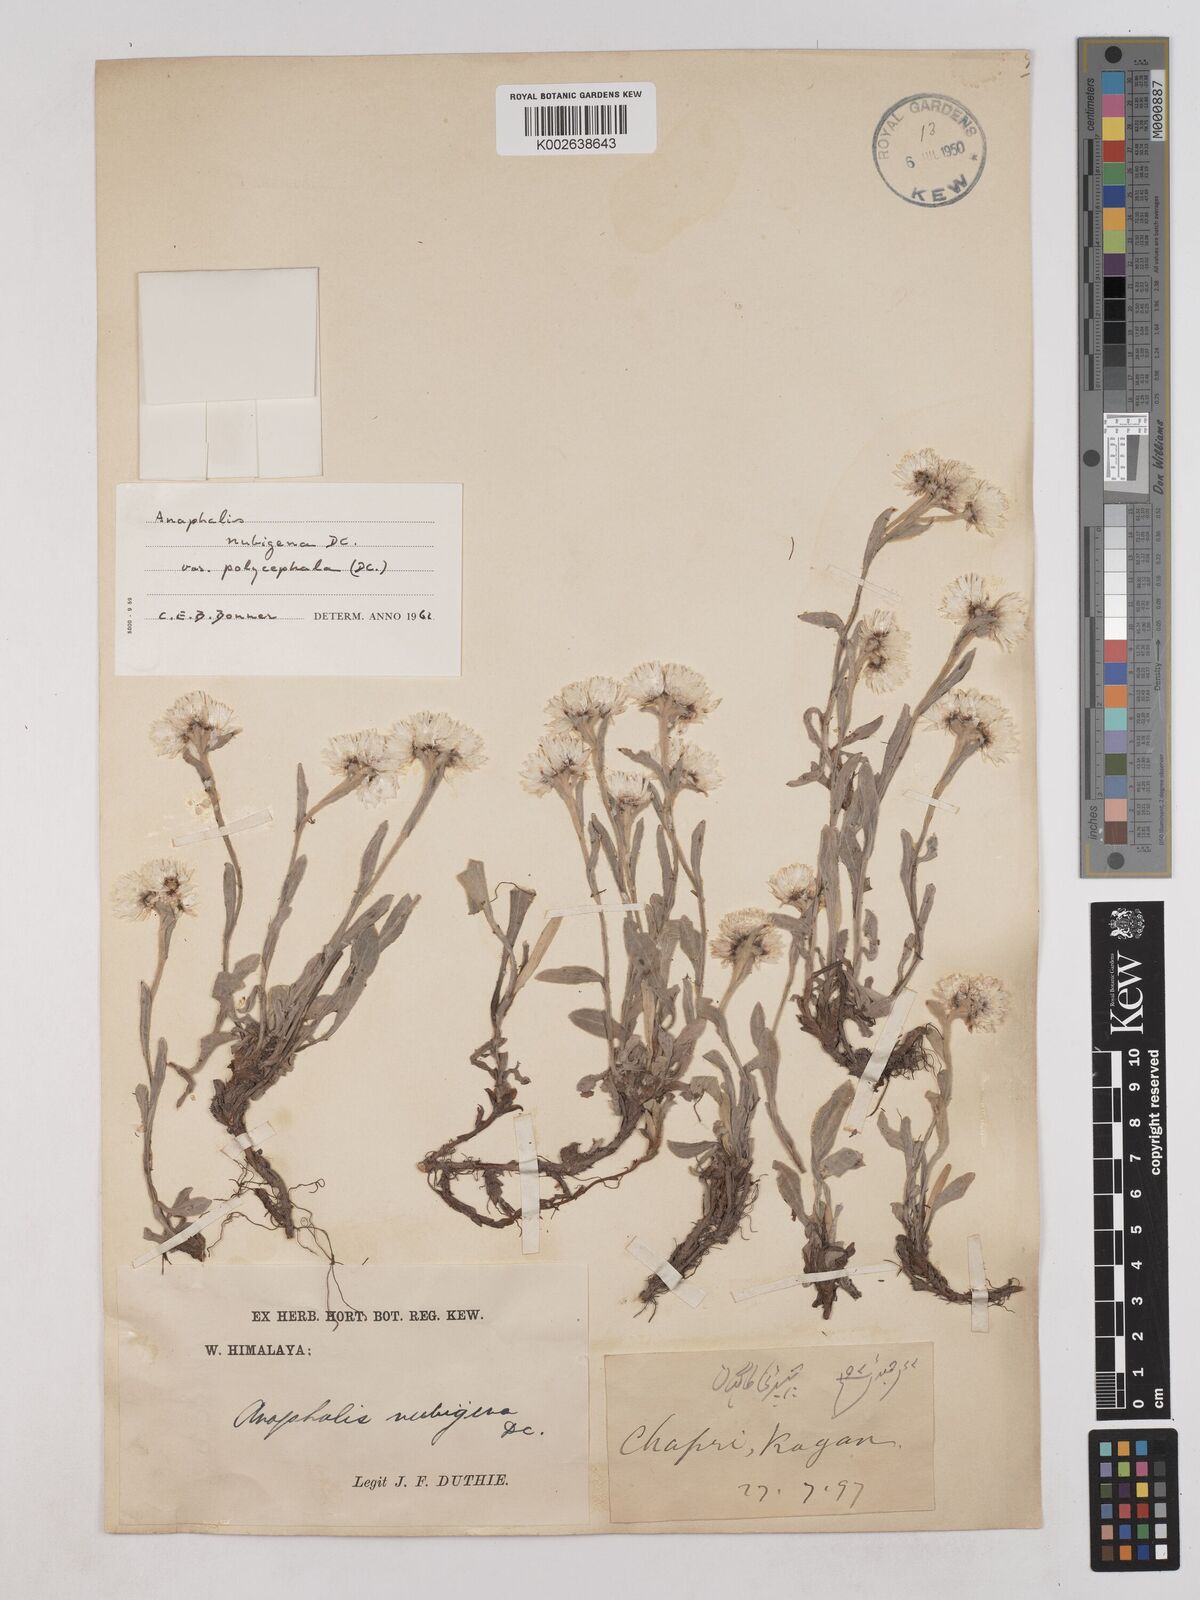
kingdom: Plantae
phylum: Tracheophyta
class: Magnoliopsida
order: Asterales
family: Asteraceae
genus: Anaphalis
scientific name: Anaphalis nepalensis
